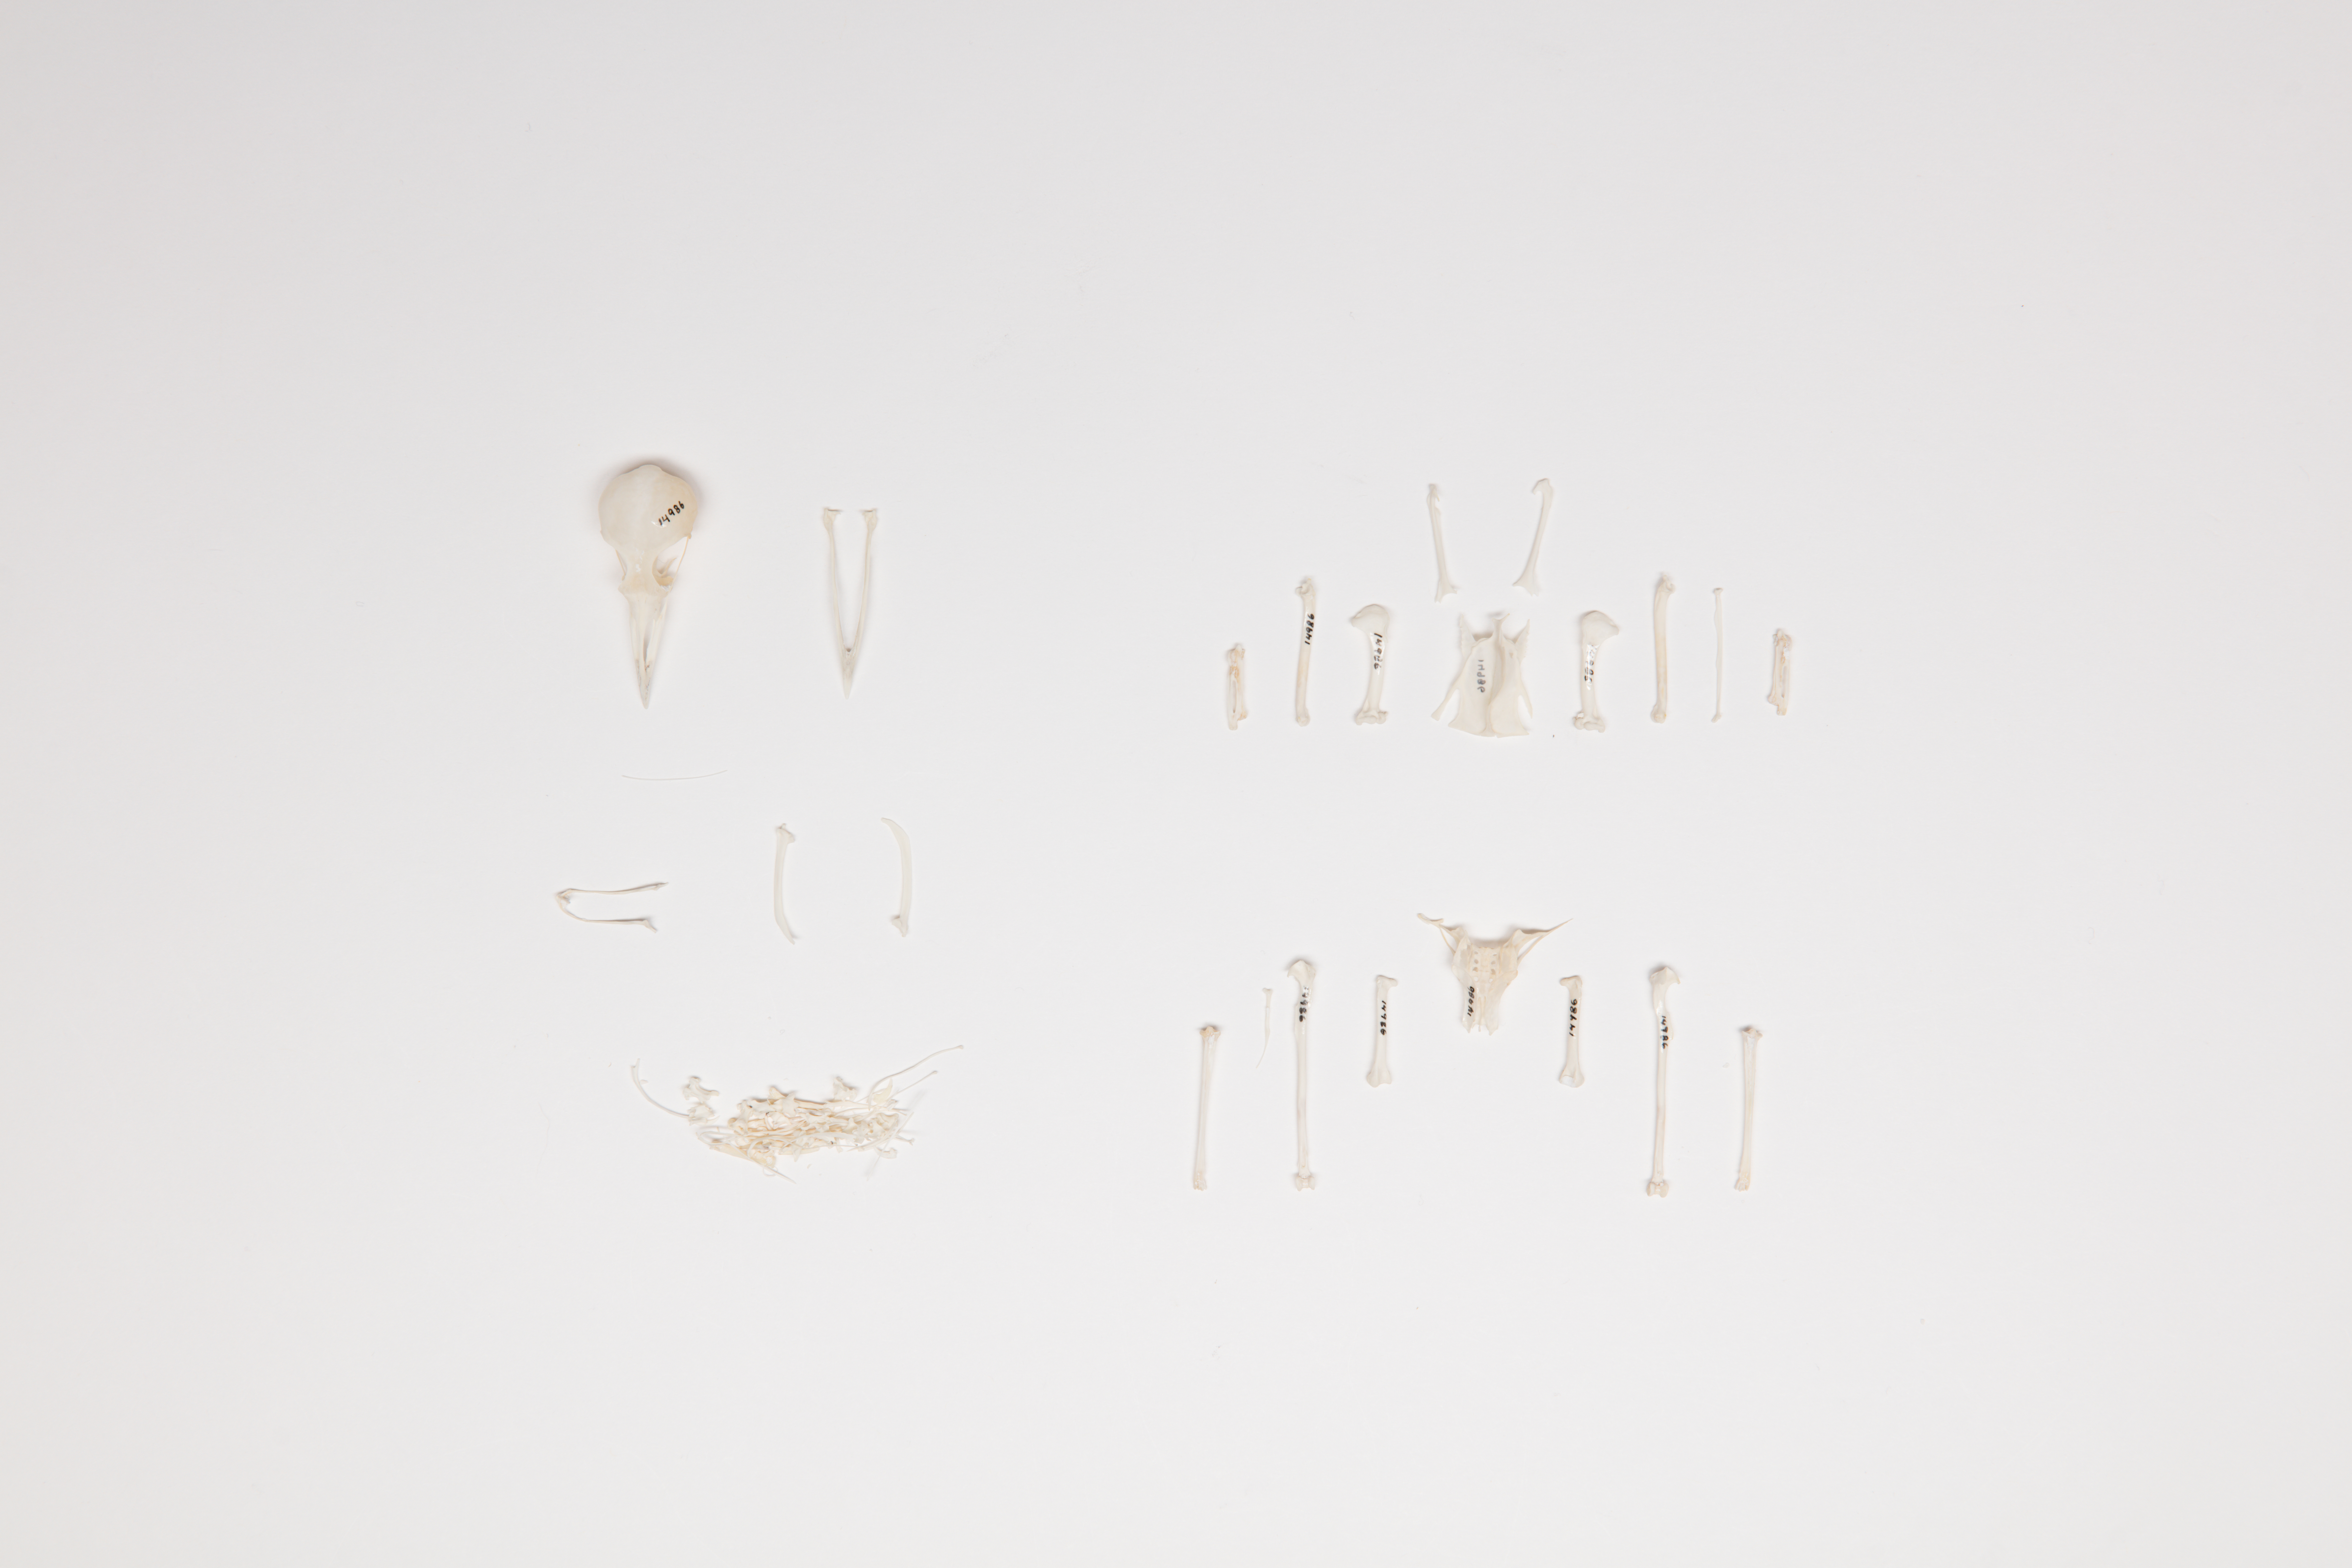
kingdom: Animalia
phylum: Chordata
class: Aves
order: Passeriformes
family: Meliphagidae
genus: Anthornis
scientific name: Anthornis melanura
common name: New zealand bellbird
